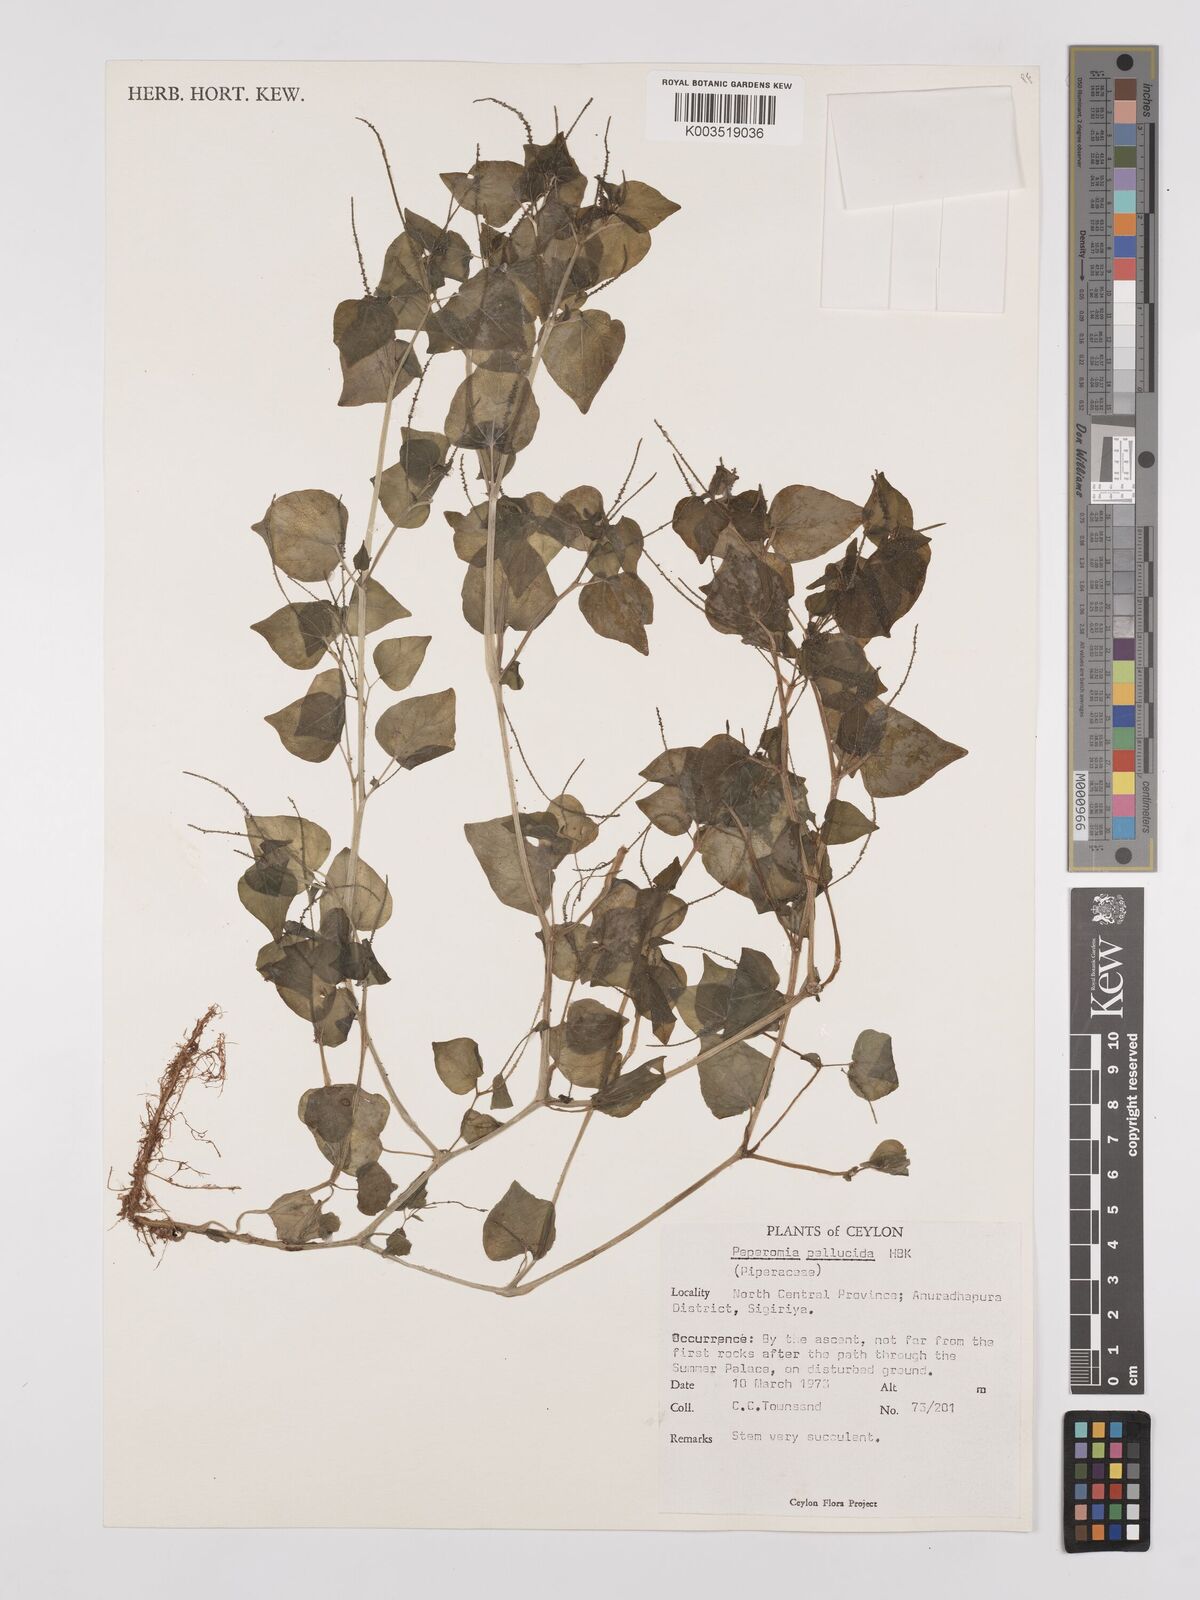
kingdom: Plantae
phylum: Tracheophyta
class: Magnoliopsida
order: Piperales
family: Piperaceae
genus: Peperomia
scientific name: Peperomia pellucida
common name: Man to man
